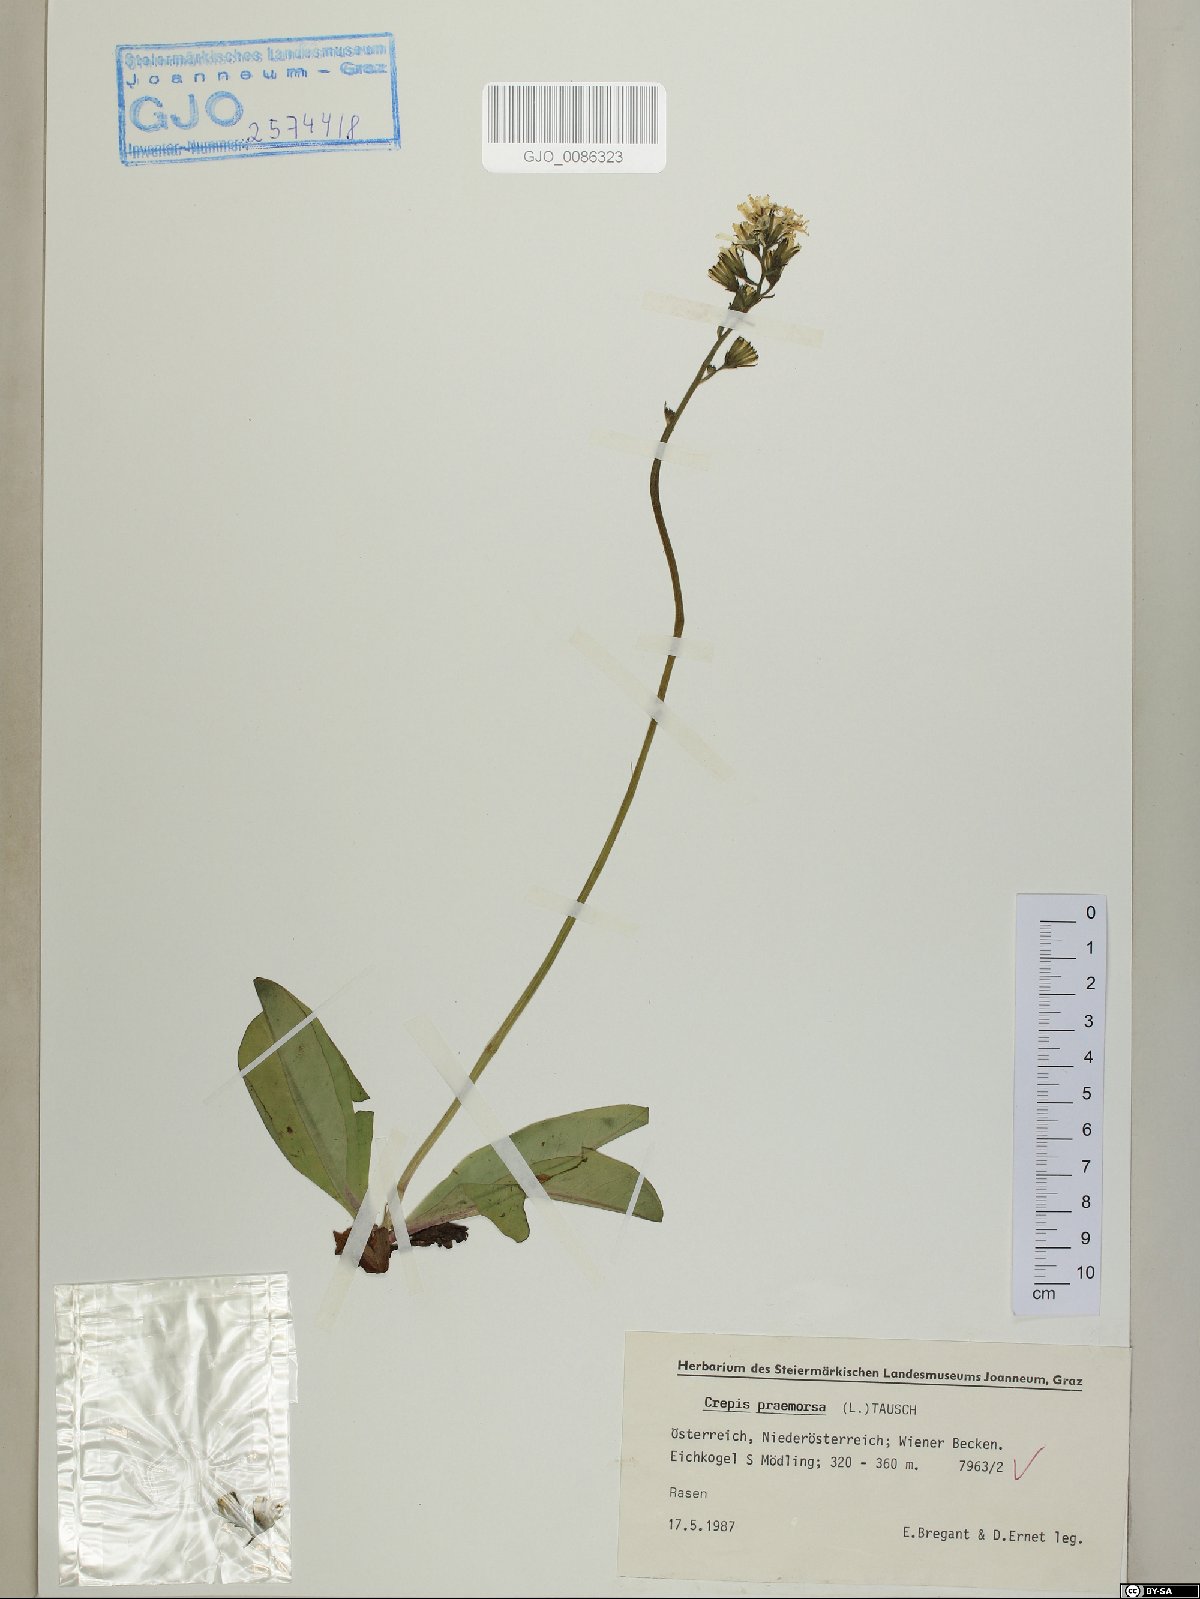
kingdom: Plantae
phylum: Tracheophyta
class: Magnoliopsida
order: Asterales
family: Asteraceae
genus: Crepis
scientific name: Crepis praemorsa
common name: Leafless hawk's-beard
